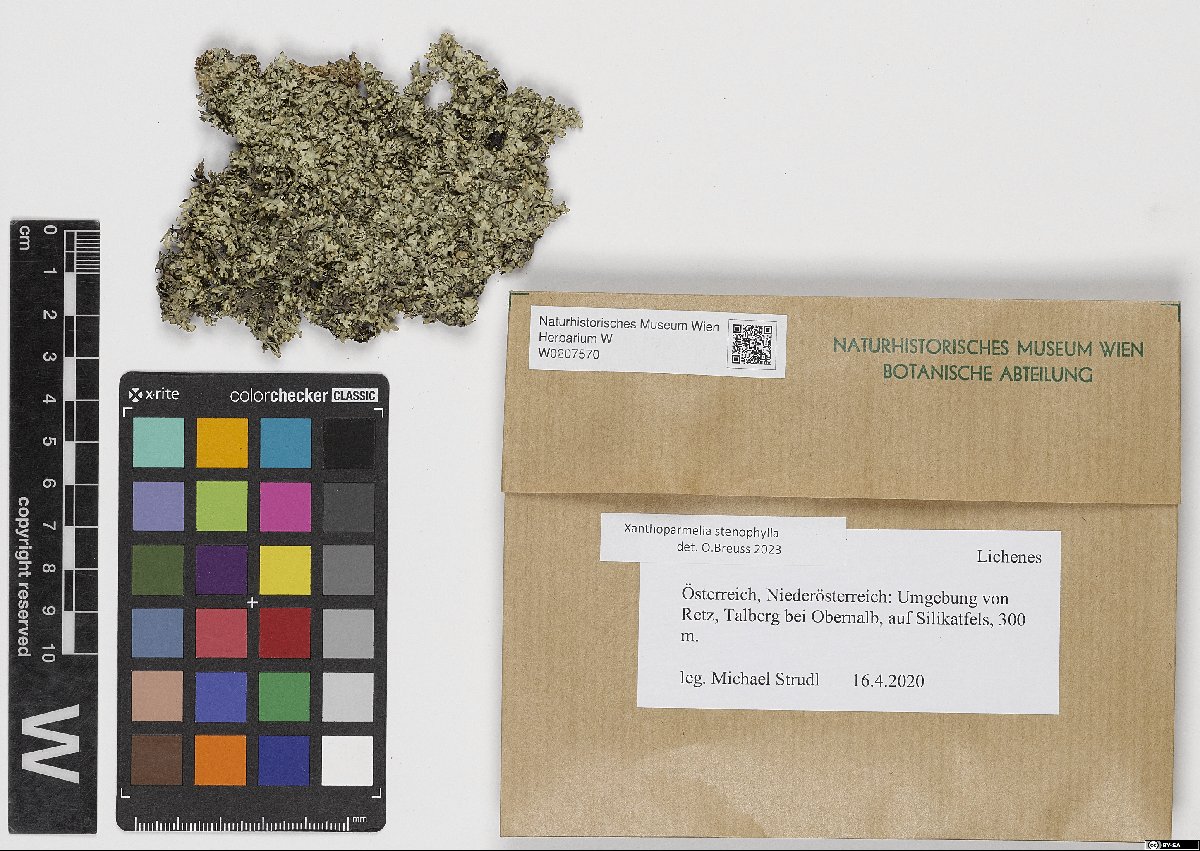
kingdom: Fungi
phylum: Ascomycota
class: Lecanoromycetes
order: Lecanorales
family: Parmeliaceae
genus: Xanthoparmelia
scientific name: Xanthoparmelia stenophylla
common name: Shingled rock shield
